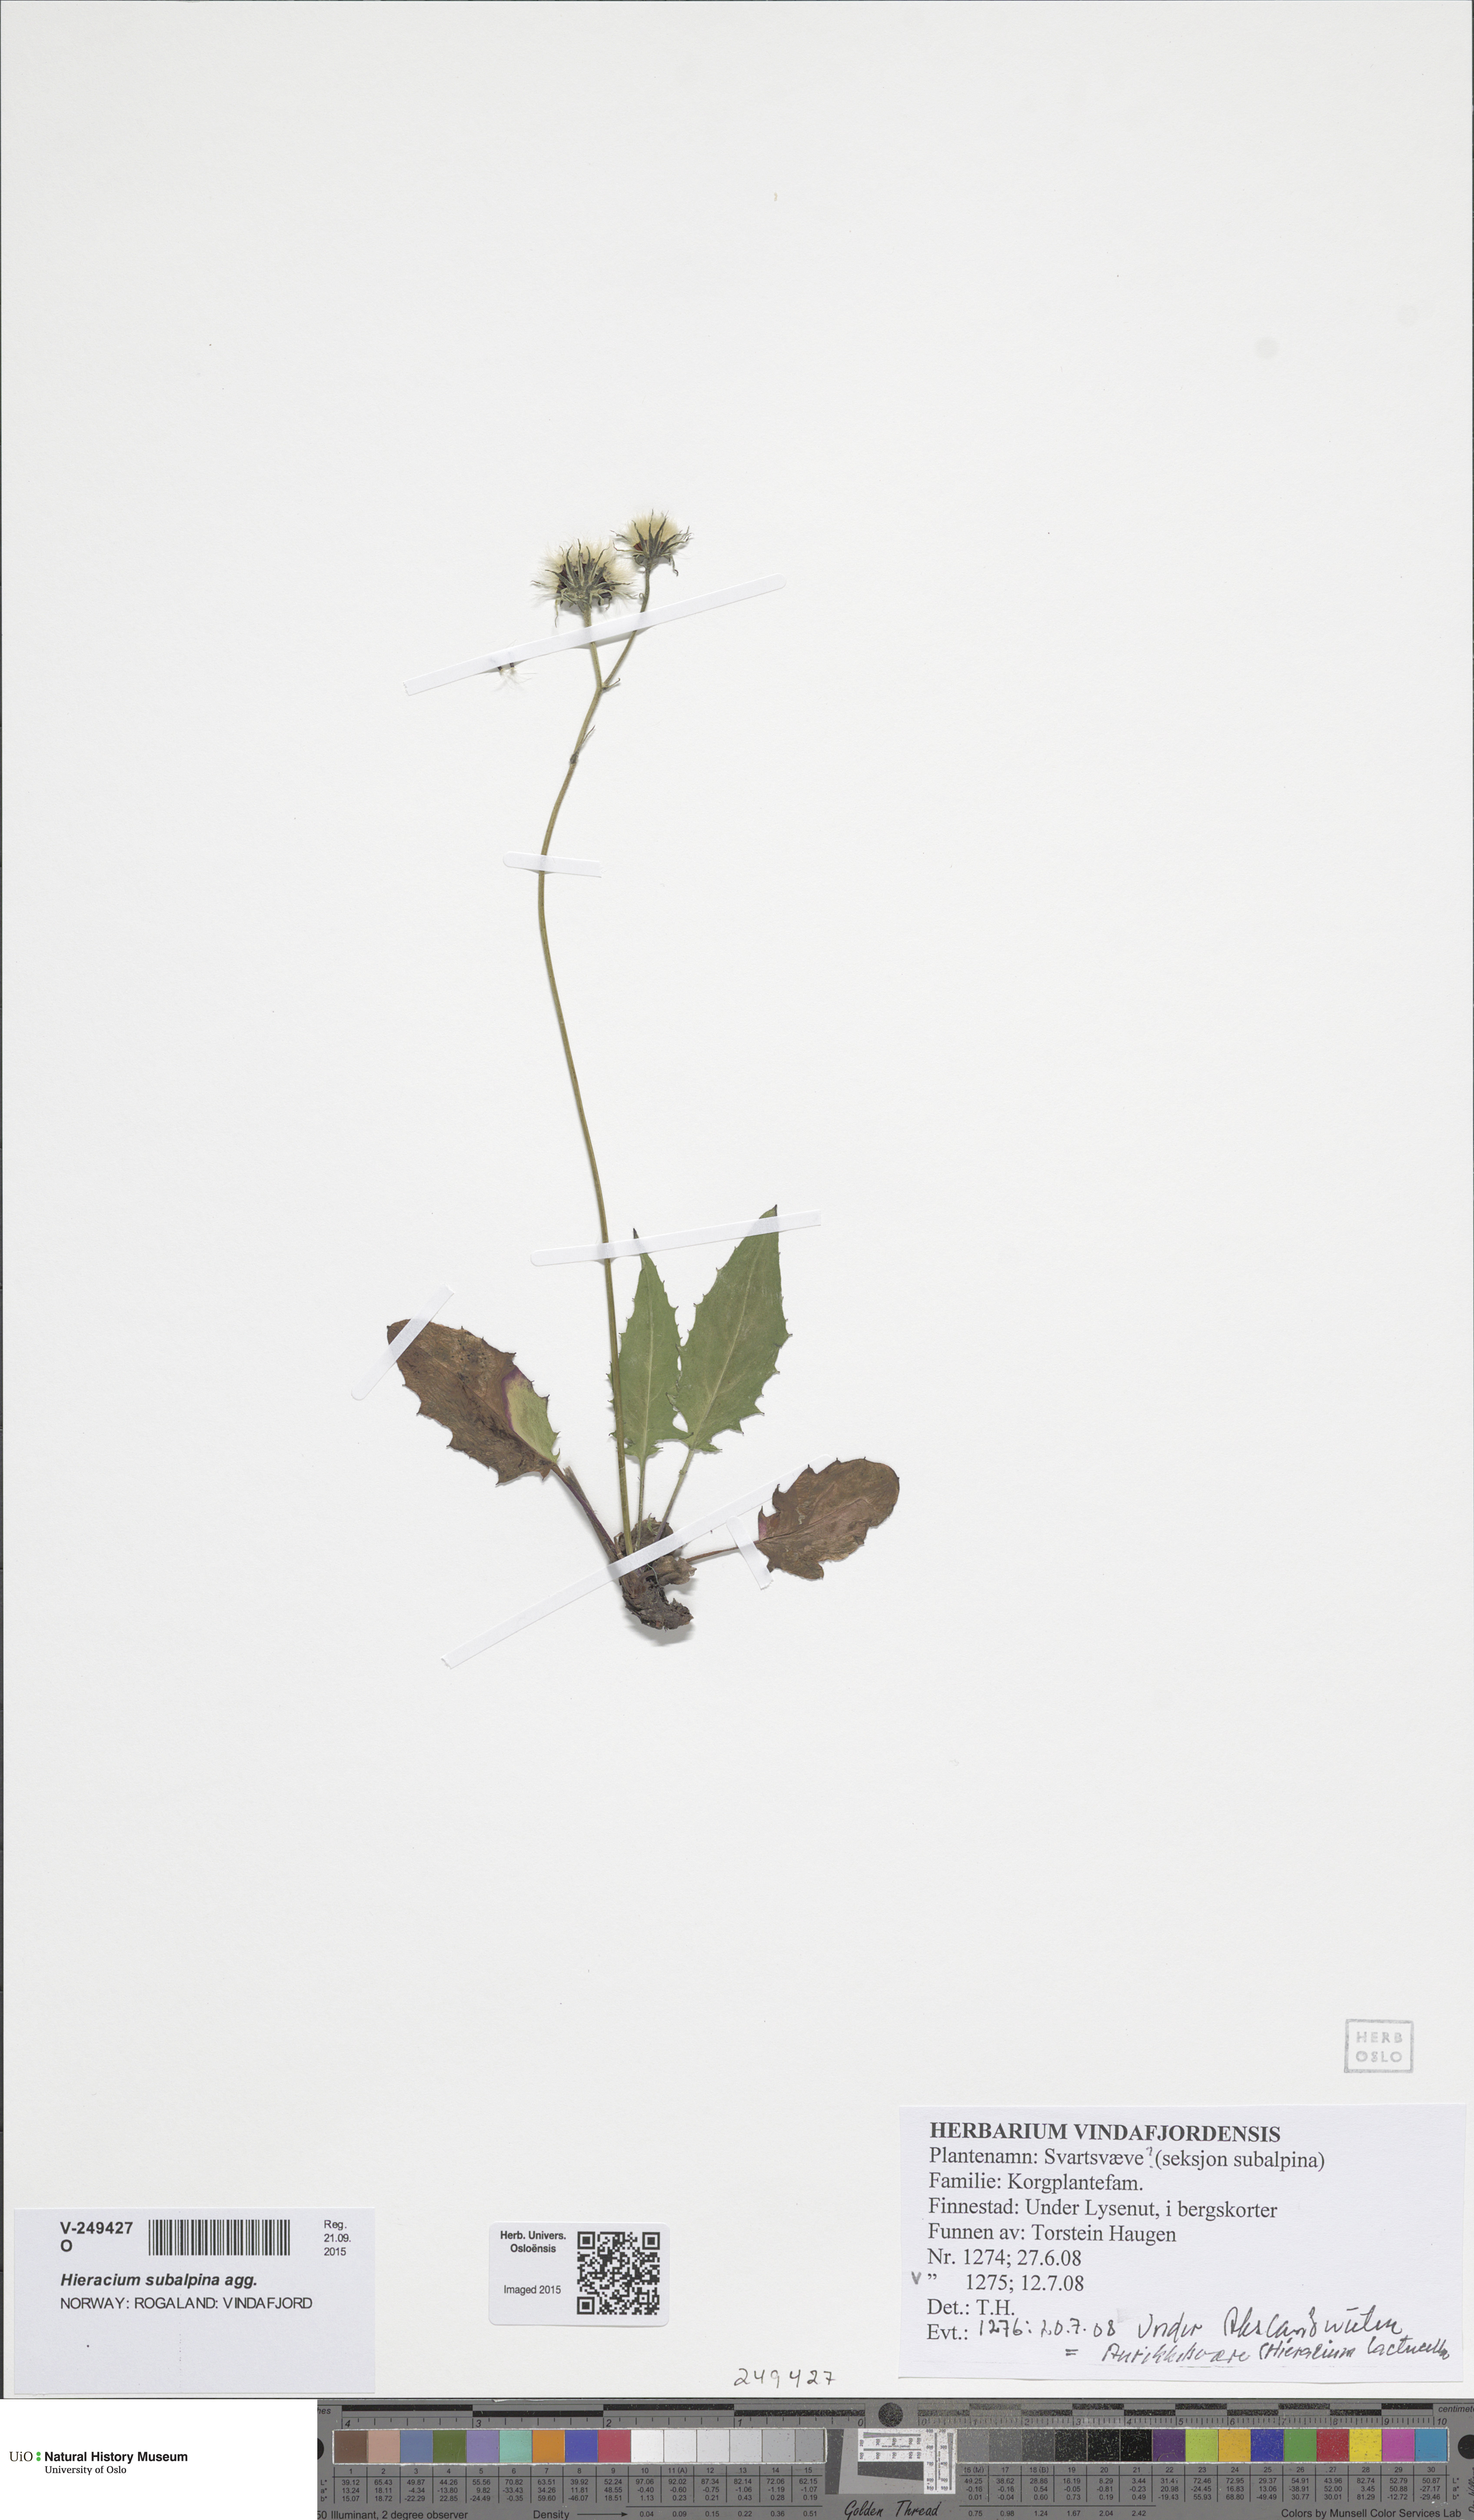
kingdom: Plantae
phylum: Tracheophyta
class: Magnoliopsida
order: Asterales
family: Asteraceae
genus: Hieracium
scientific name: Hieracium umbrosum
